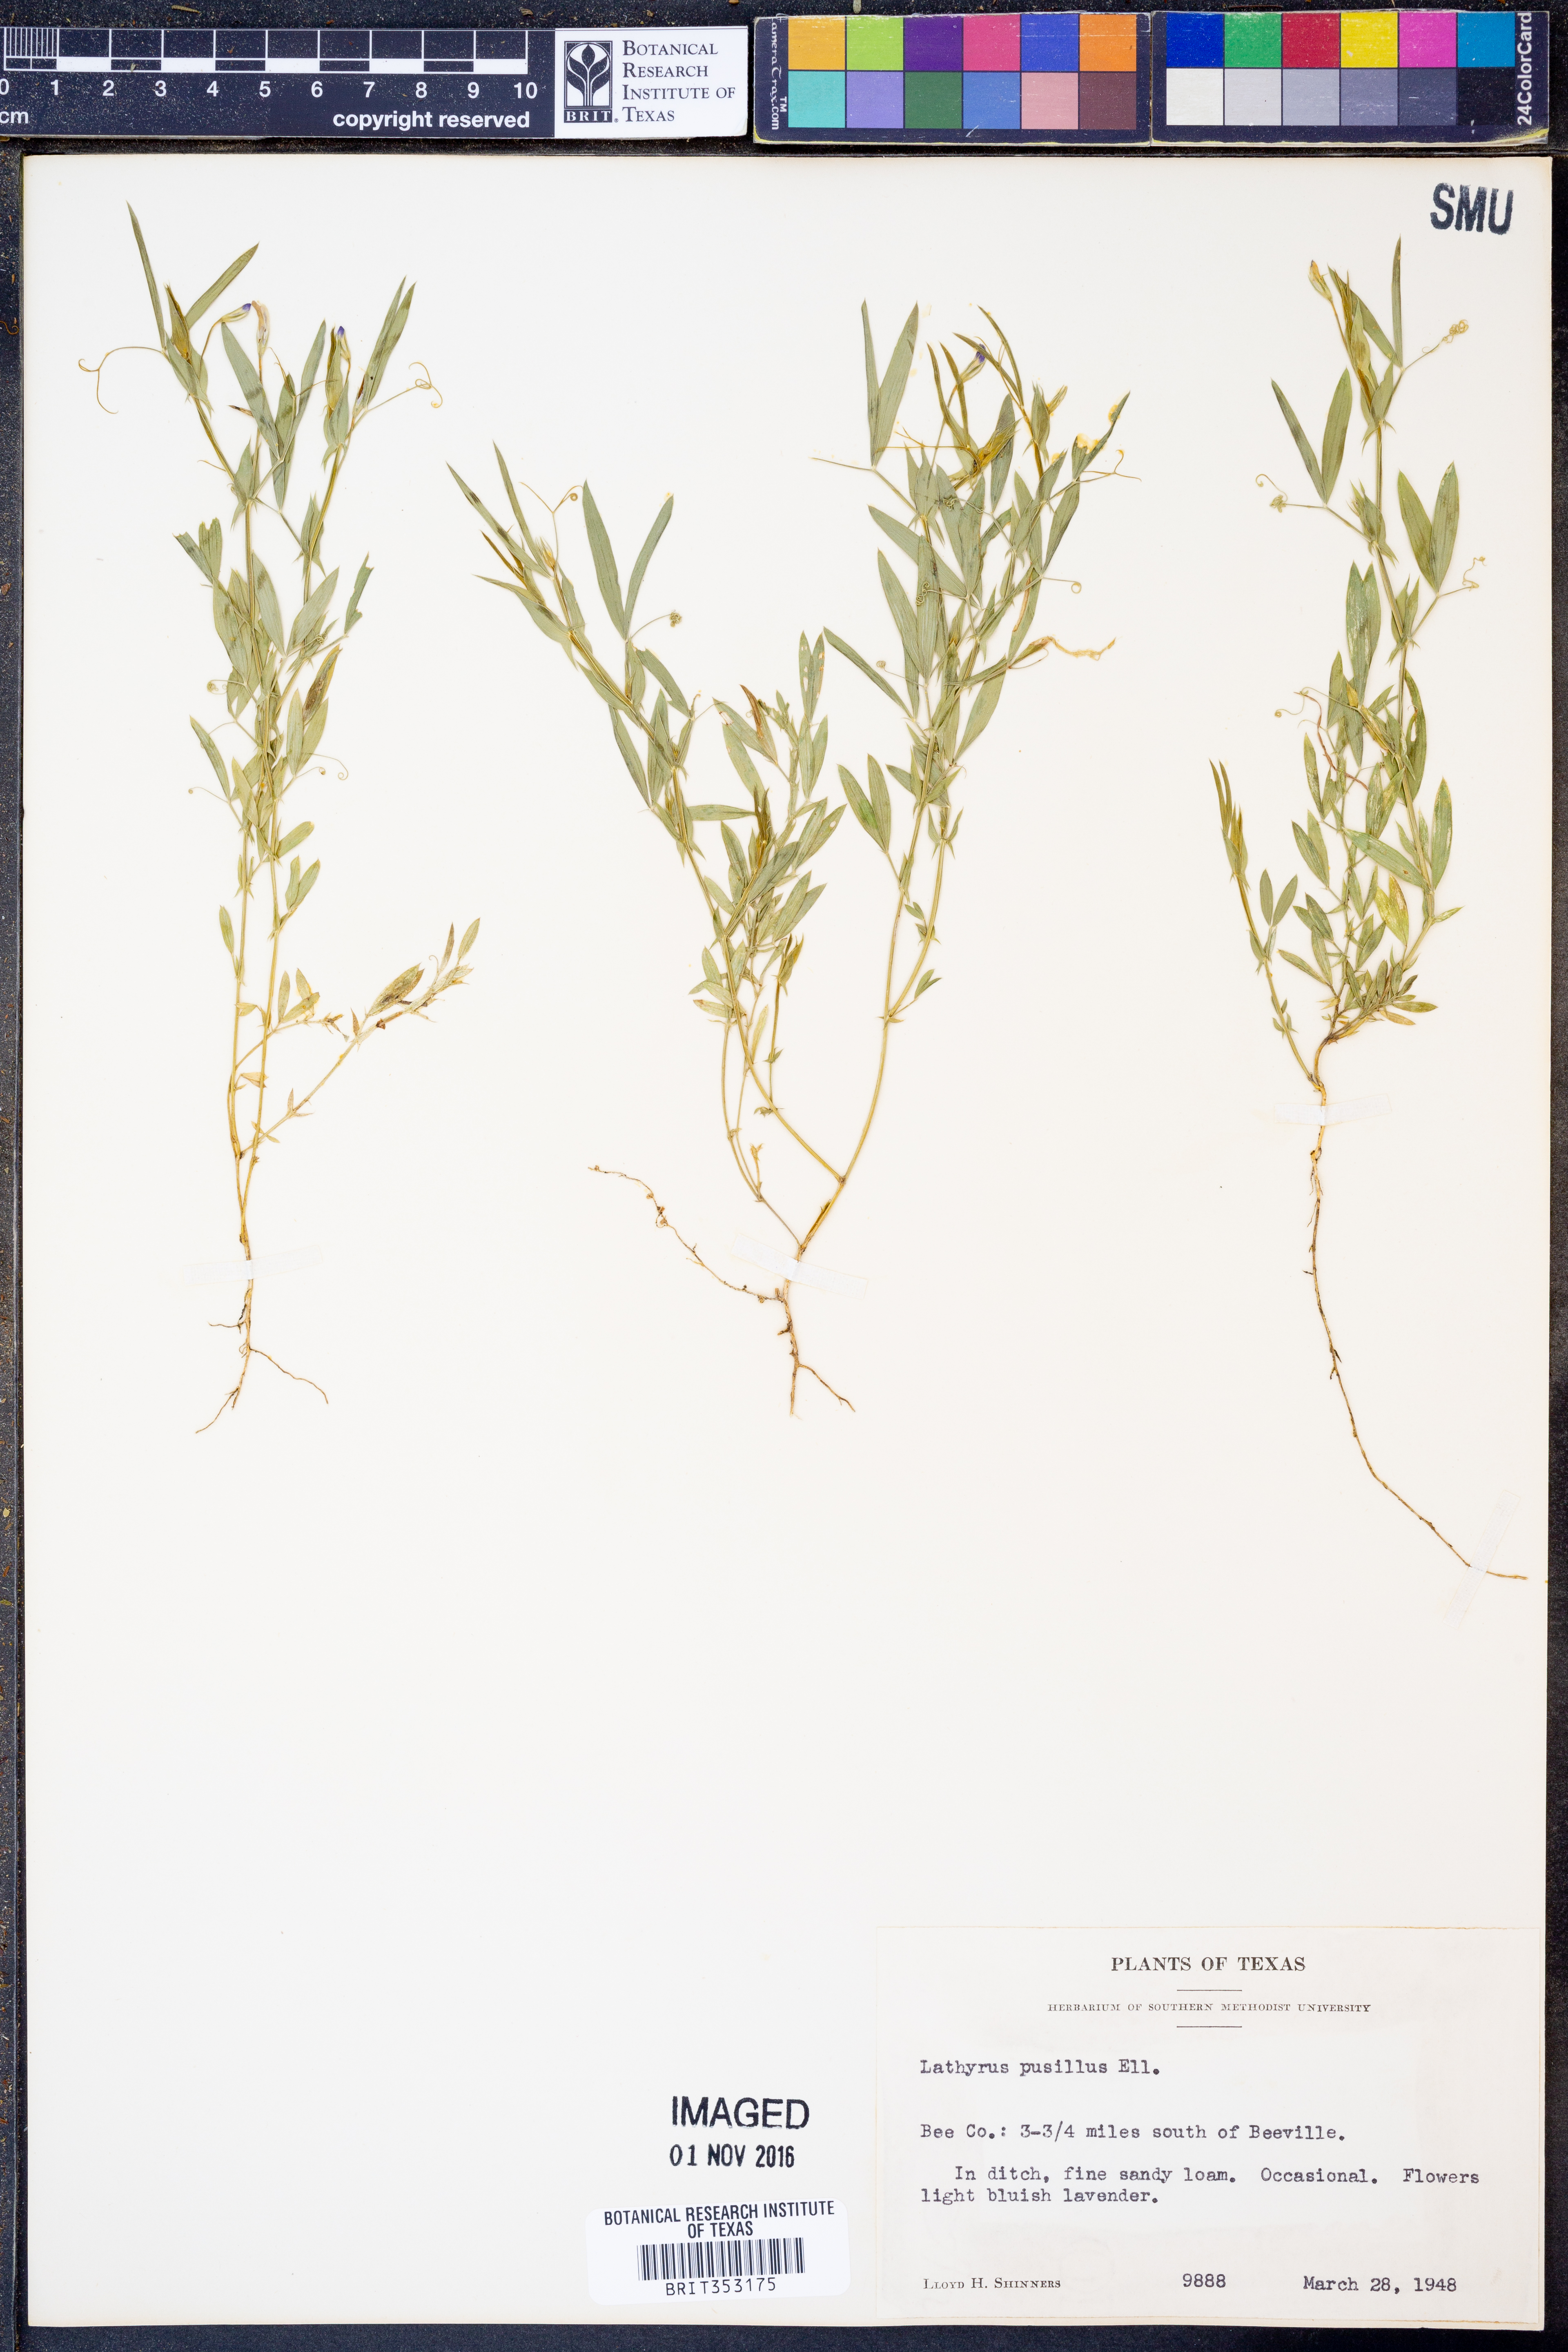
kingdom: Plantae
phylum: Tracheophyta
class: Magnoliopsida
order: Fabales
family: Fabaceae
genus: Lathyrus
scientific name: Lathyrus pusillus
